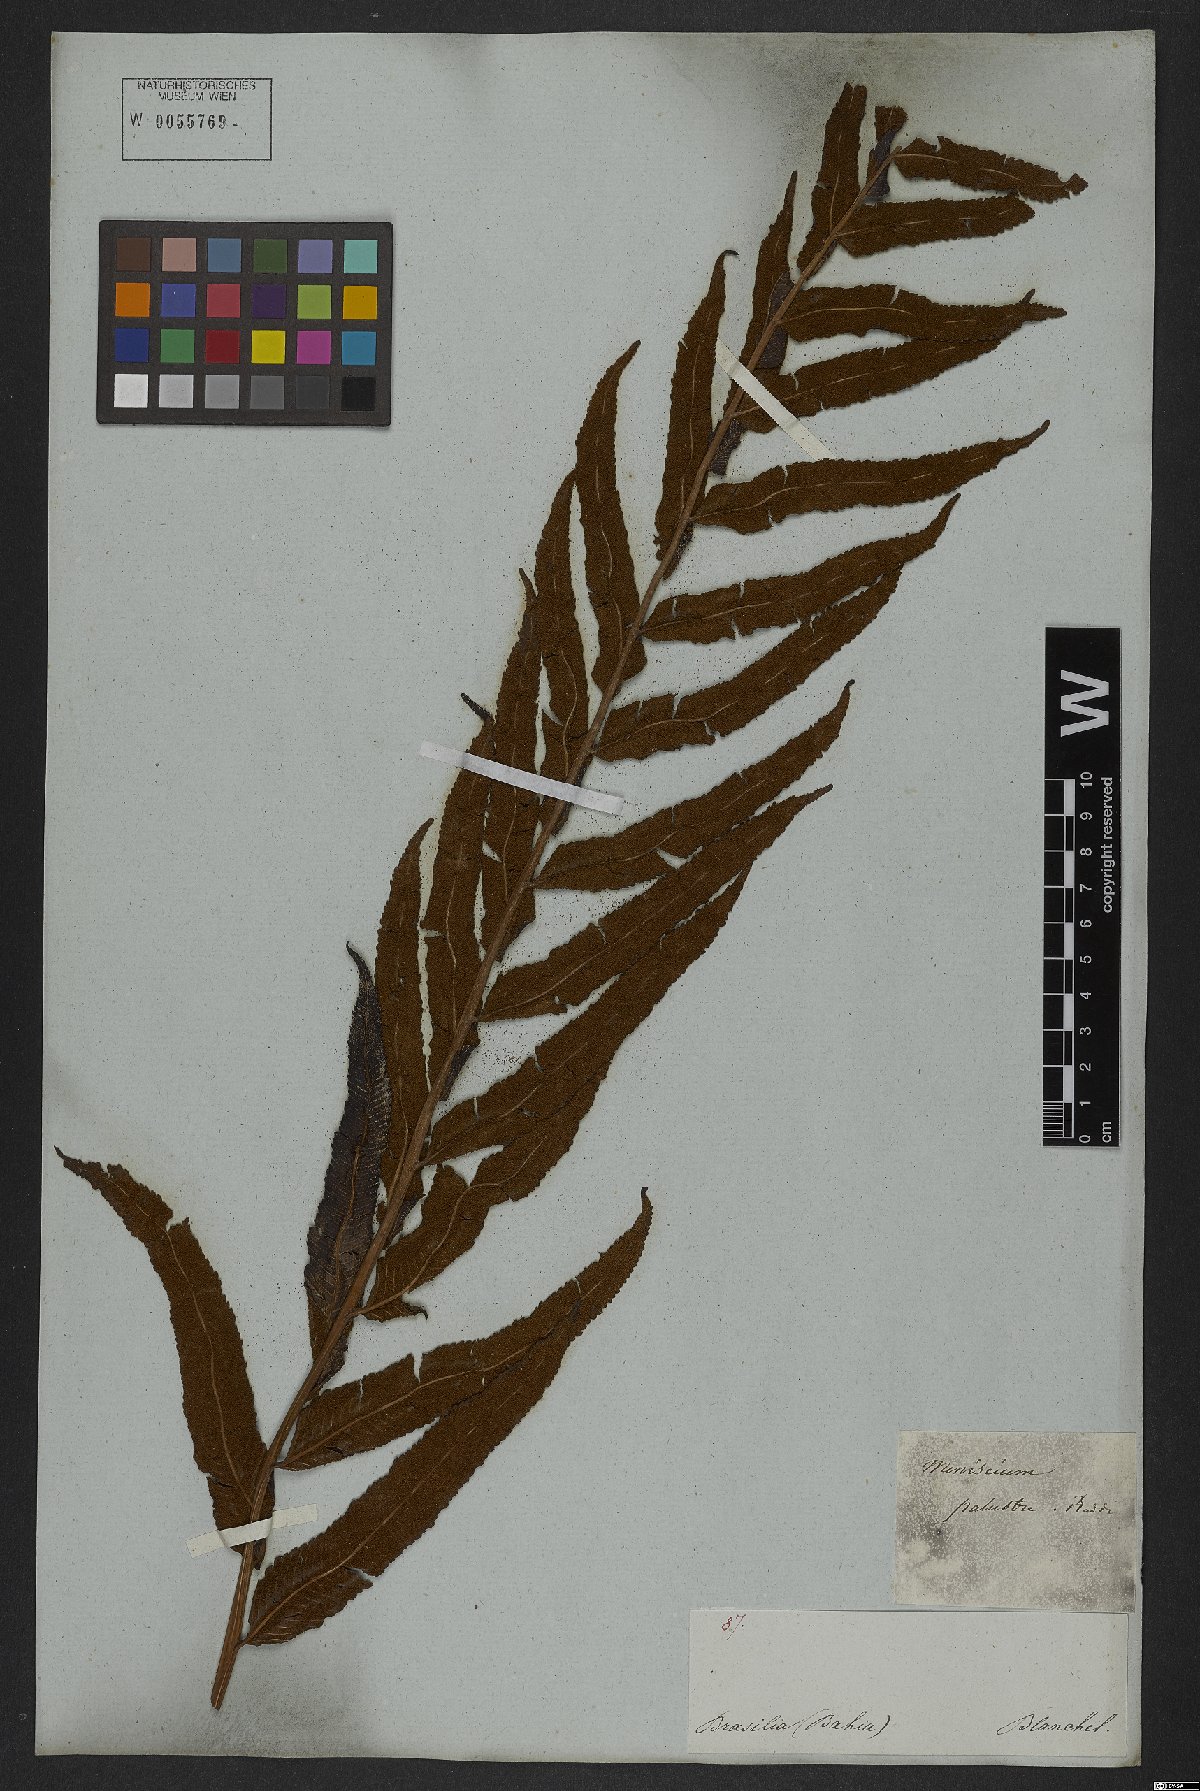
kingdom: Plantae
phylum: Tracheophyta
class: Polypodiopsida
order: Polypodiales
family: Thelypteridaceae
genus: Meniscium
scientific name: Meniscium serratum
